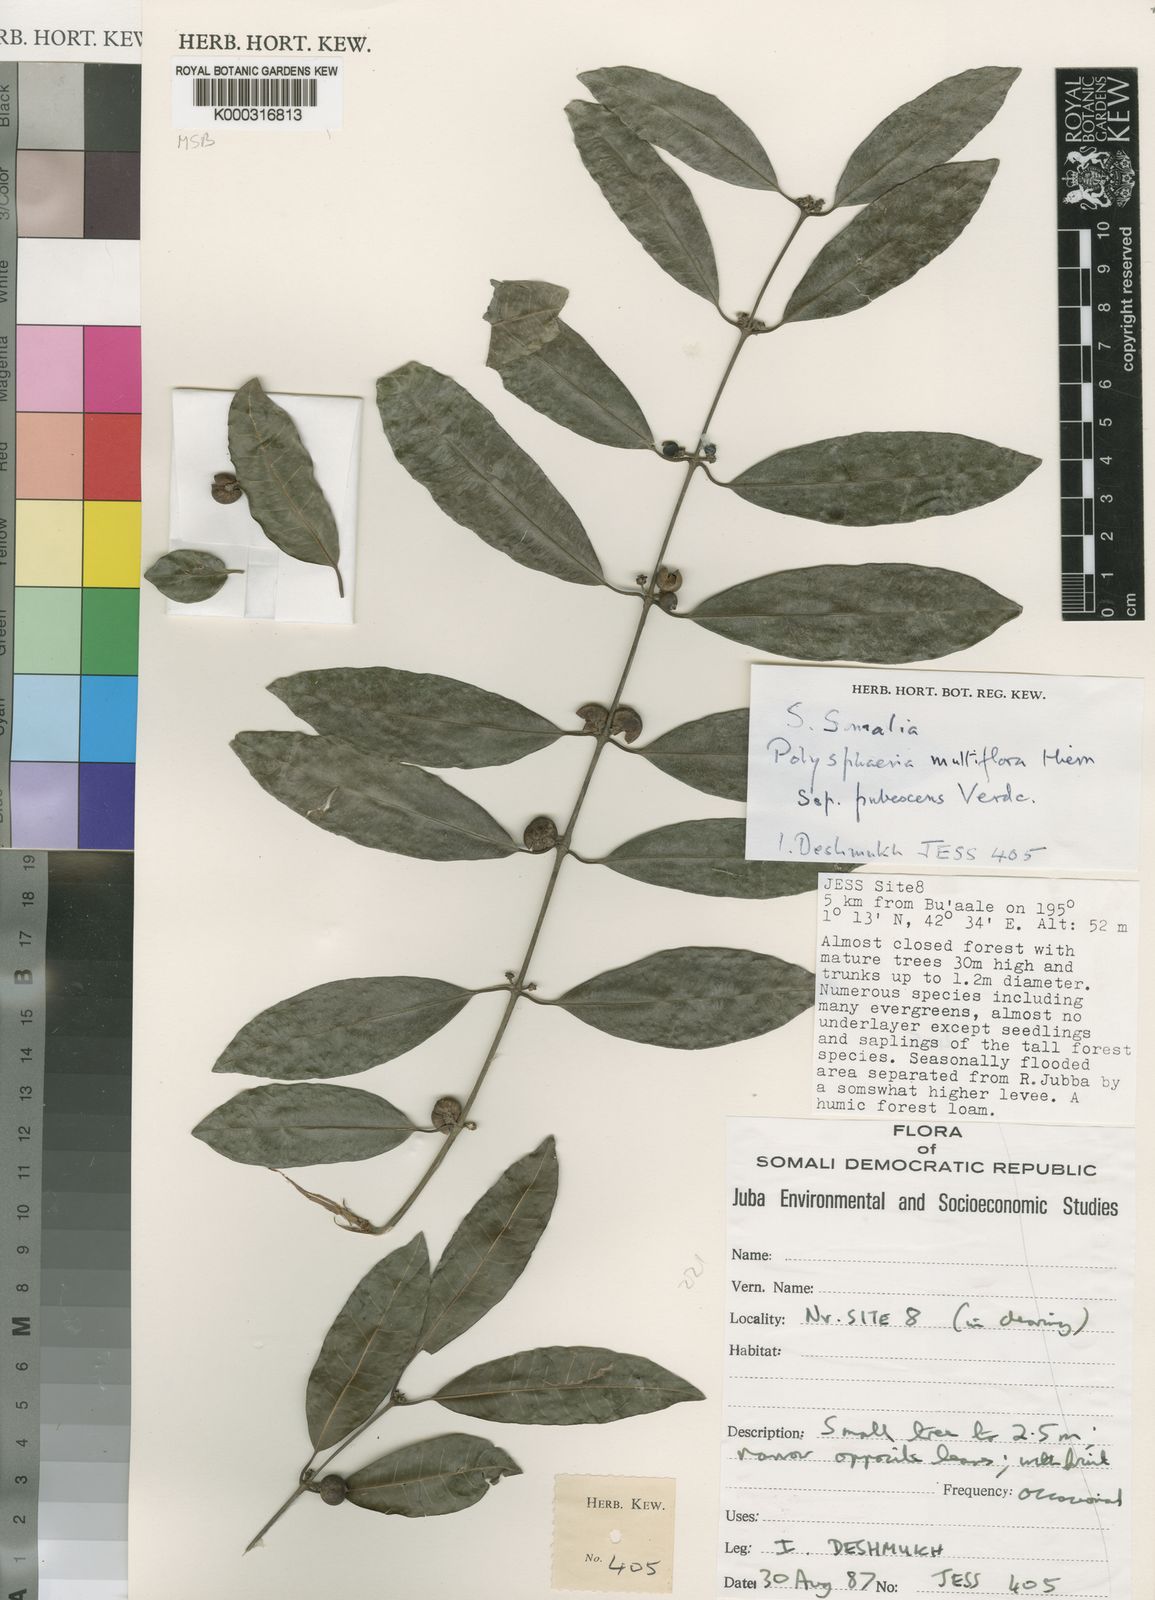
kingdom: Plantae
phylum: Tracheophyta
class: Magnoliopsida
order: Gentianales
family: Rubiaceae
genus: Polysphaeria
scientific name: Polysphaeria multiflora
